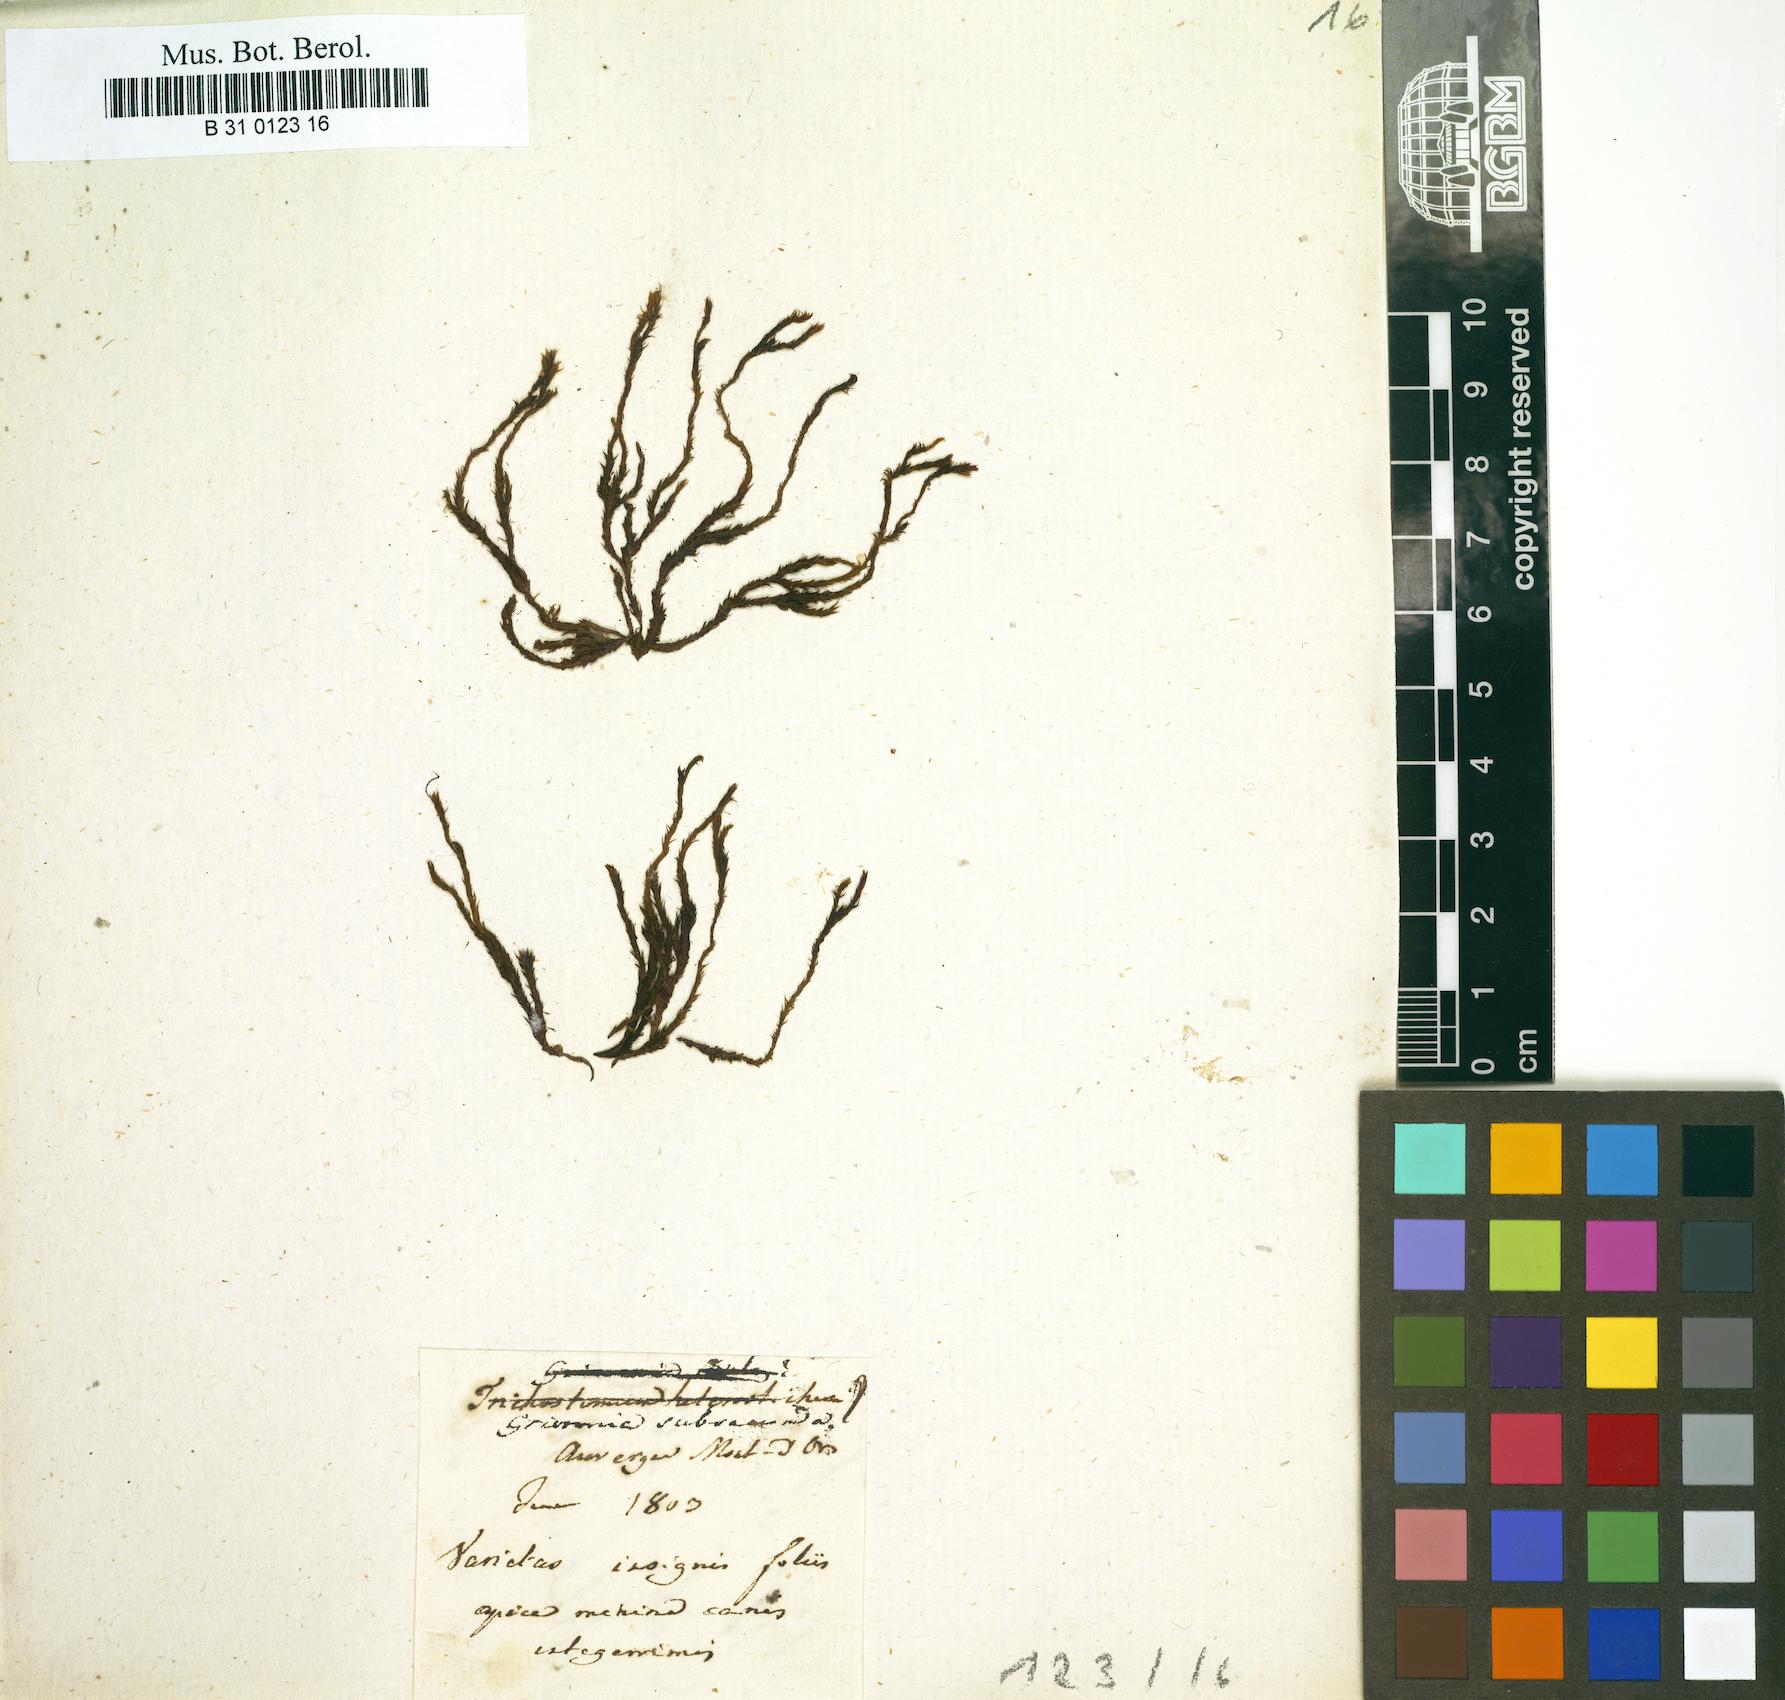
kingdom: Plantae
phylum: Bryophyta
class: Bryopsida
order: Grimmiales
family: Grimmiaceae
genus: Grimmia
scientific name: Grimmia
